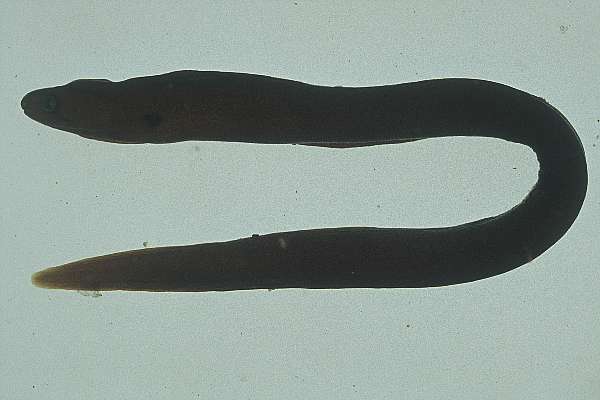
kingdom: Animalia
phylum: Chordata
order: Anguilliformes
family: Muraenidae
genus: Gymnothorax
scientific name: Gymnothorax flavimarginatus
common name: Yellow-edged moray
